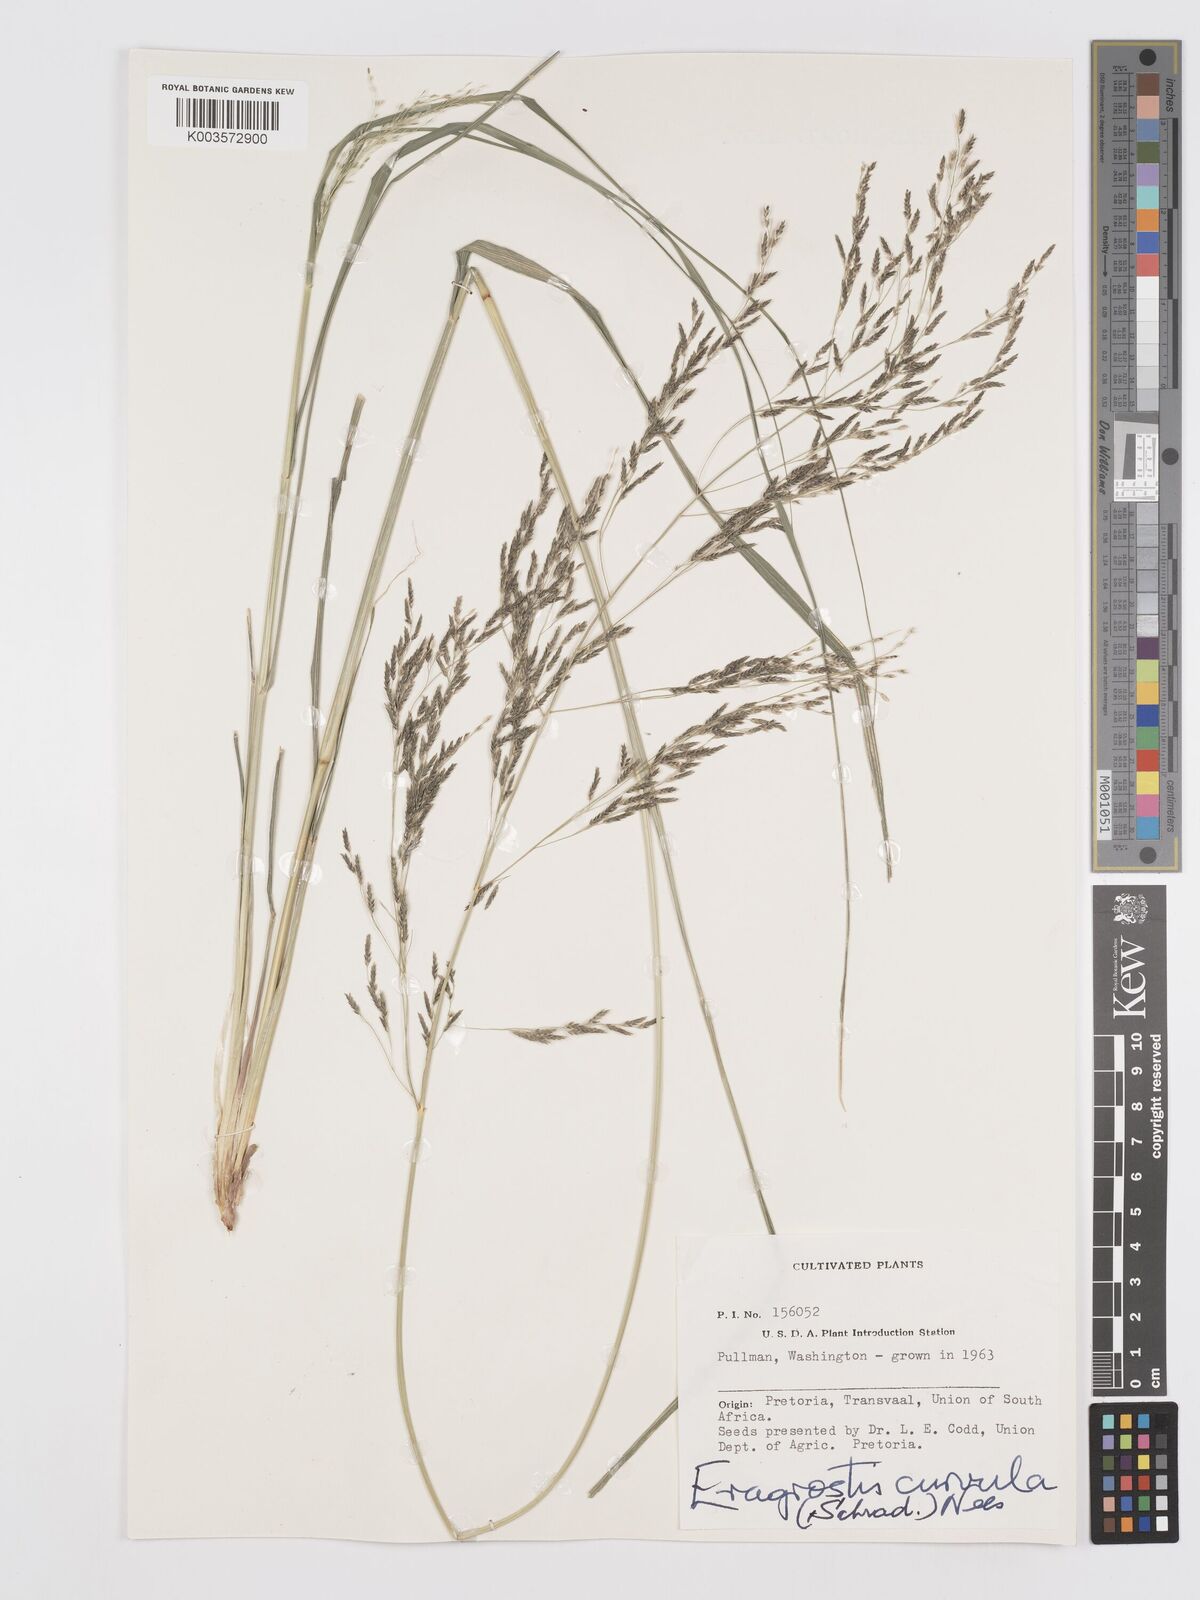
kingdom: Plantae
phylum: Tracheophyta
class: Liliopsida
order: Poales
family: Poaceae
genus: Eragrostis
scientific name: Eragrostis curvula
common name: African love-grass
